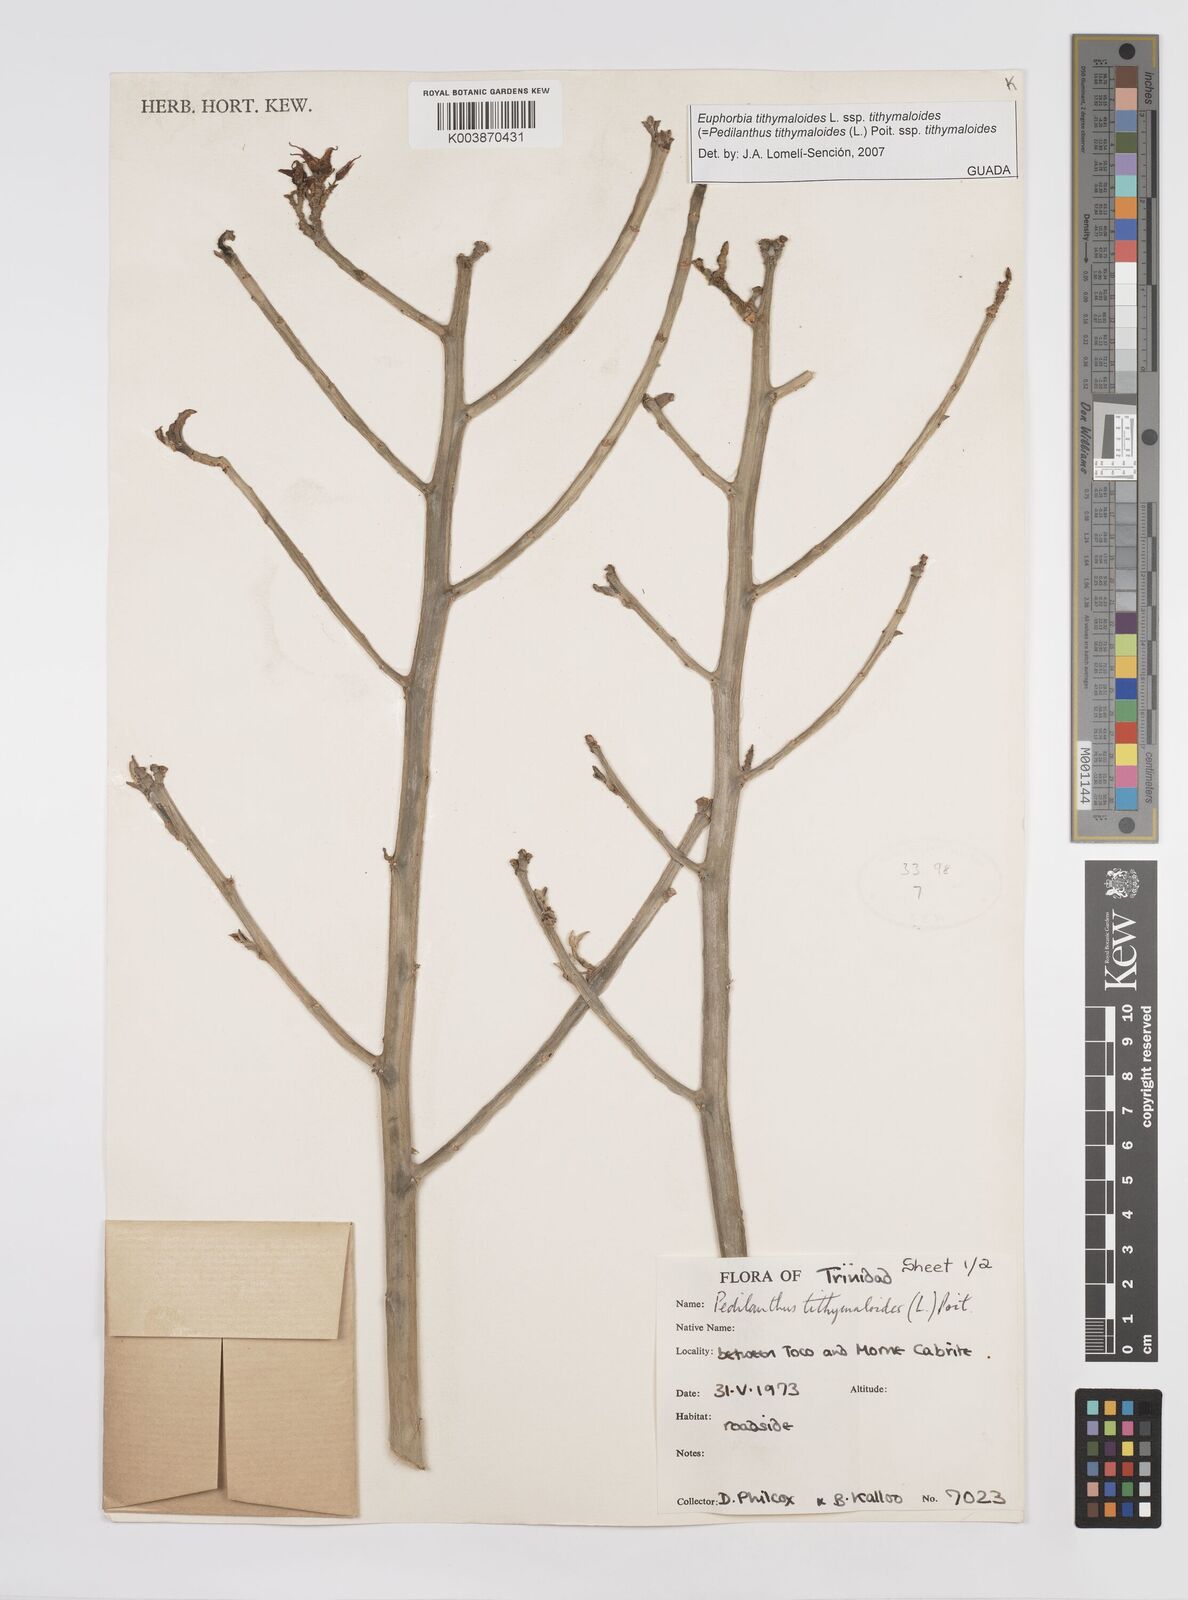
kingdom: Plantae
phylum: Tracheophyta
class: Magnoliopsida
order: Malpighiales
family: Euphorbiaceae
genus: Euphorbia
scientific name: Euphorbia tithymaloides
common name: Slipperplant
